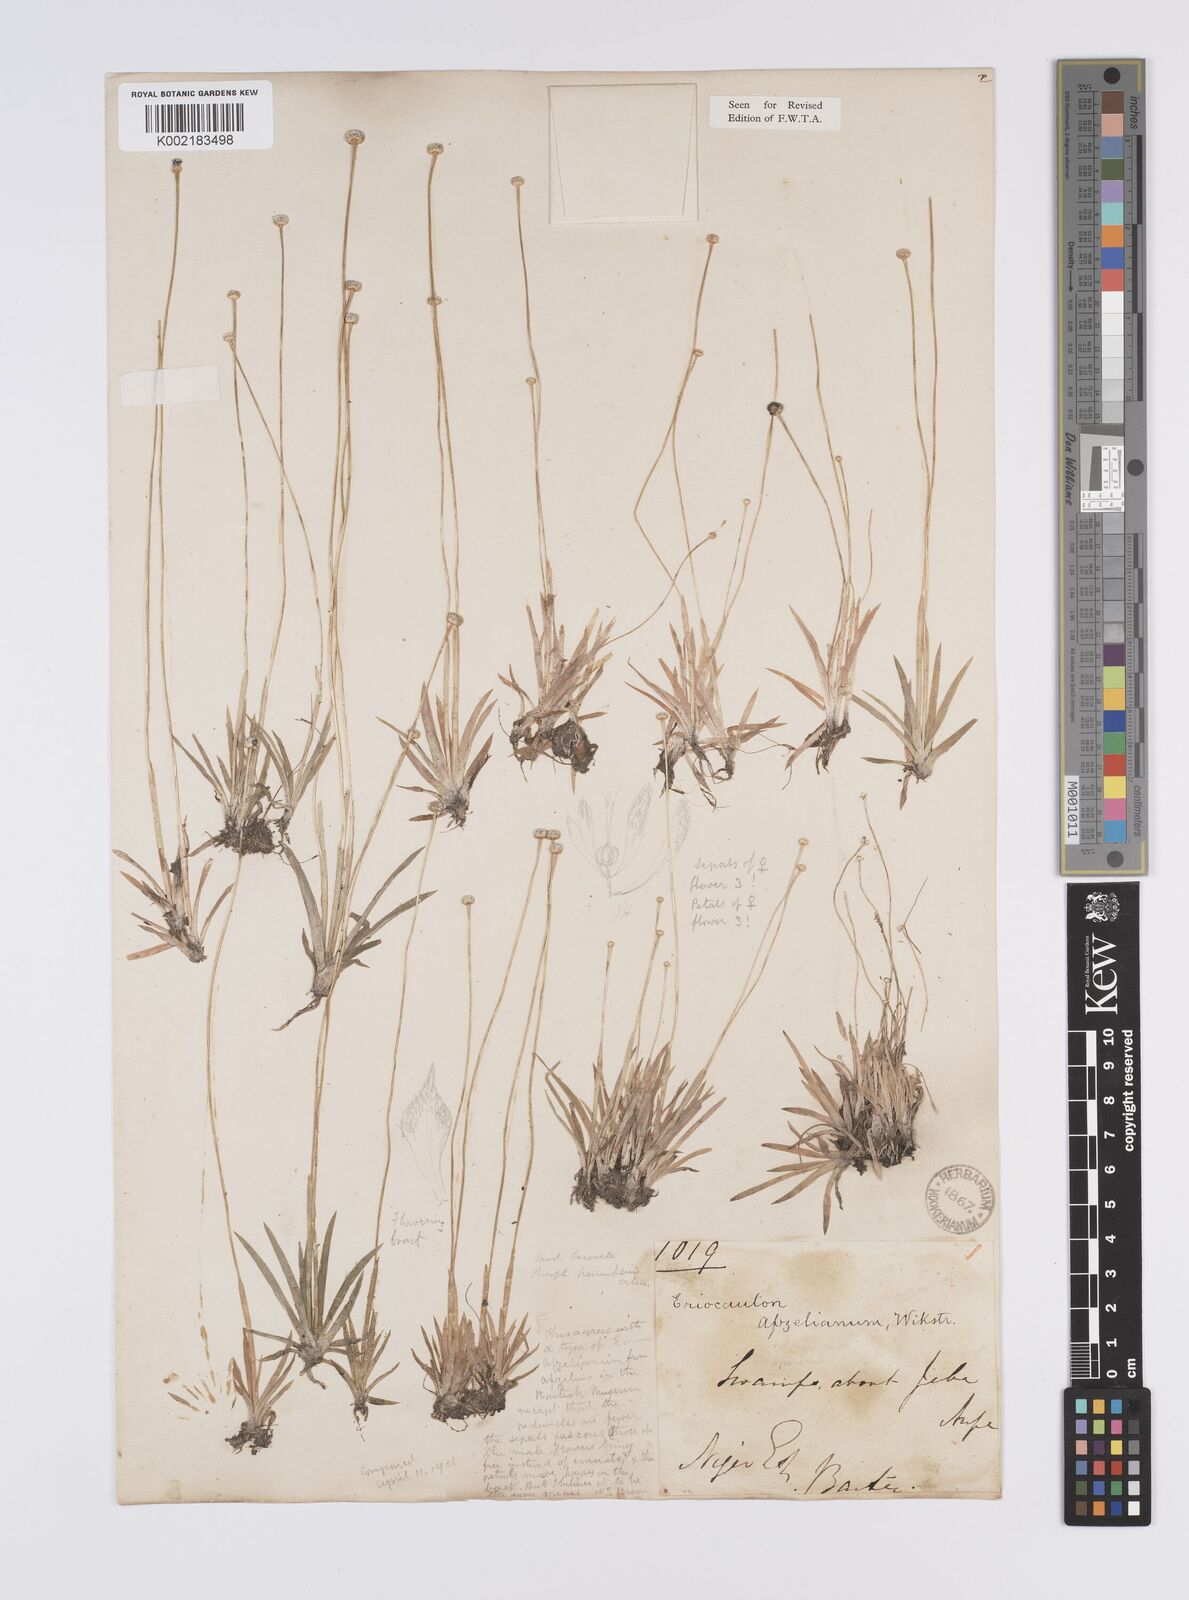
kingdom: Plantae
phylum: Tracheophyta
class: Liliopsida
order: Poales
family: Eriocaulaceae
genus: Eriocaulon
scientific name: Eriocaulon afzelianum
